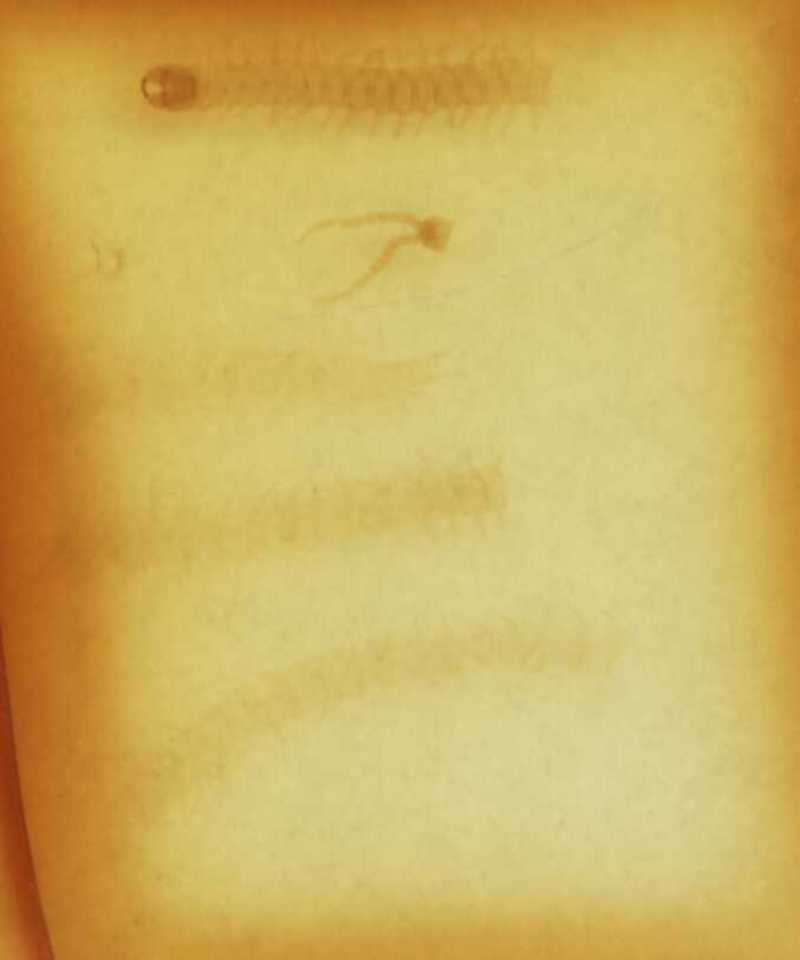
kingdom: Animalia
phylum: Arthropoda
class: Chilopoda
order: Geophilomorpha
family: Geophilidae
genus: Geophilus
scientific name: Geophilus osquidatum
